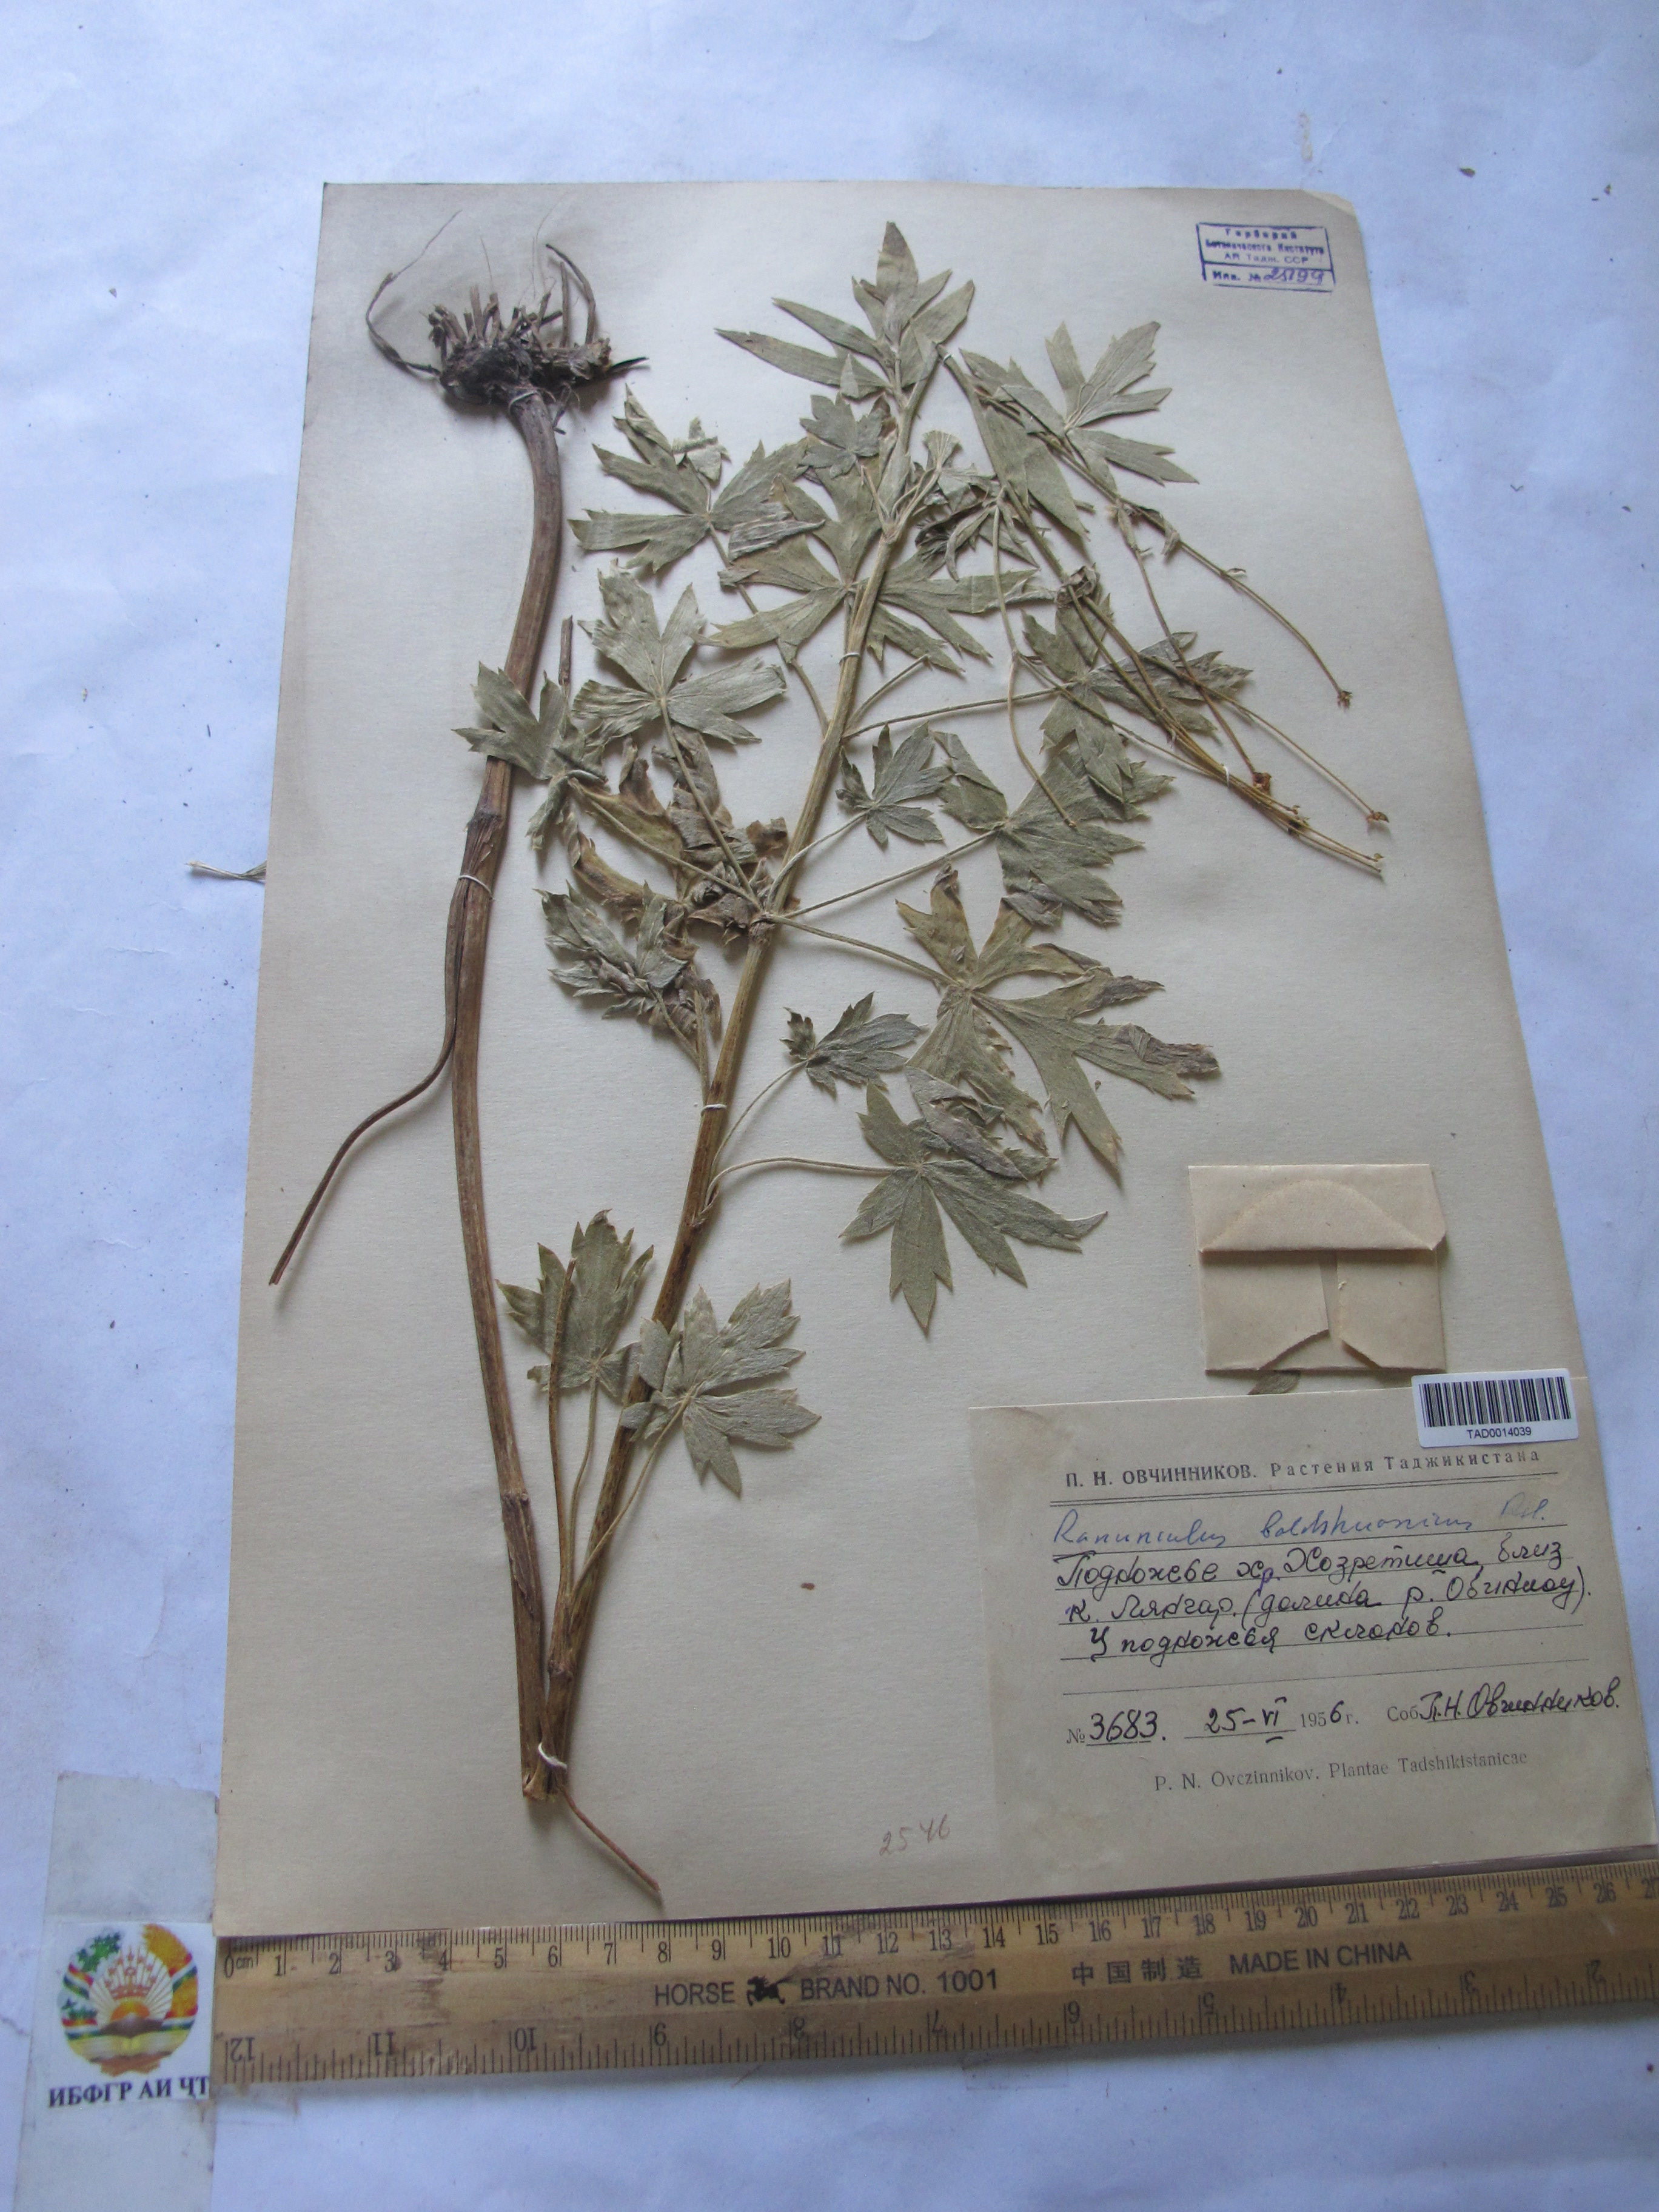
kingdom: Plantae
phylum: Tracheophyta
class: Magnoliopsida
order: Ranunculales
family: Ranunculaceae
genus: Ranunculus
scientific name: Ranunculus baldshuanicus
